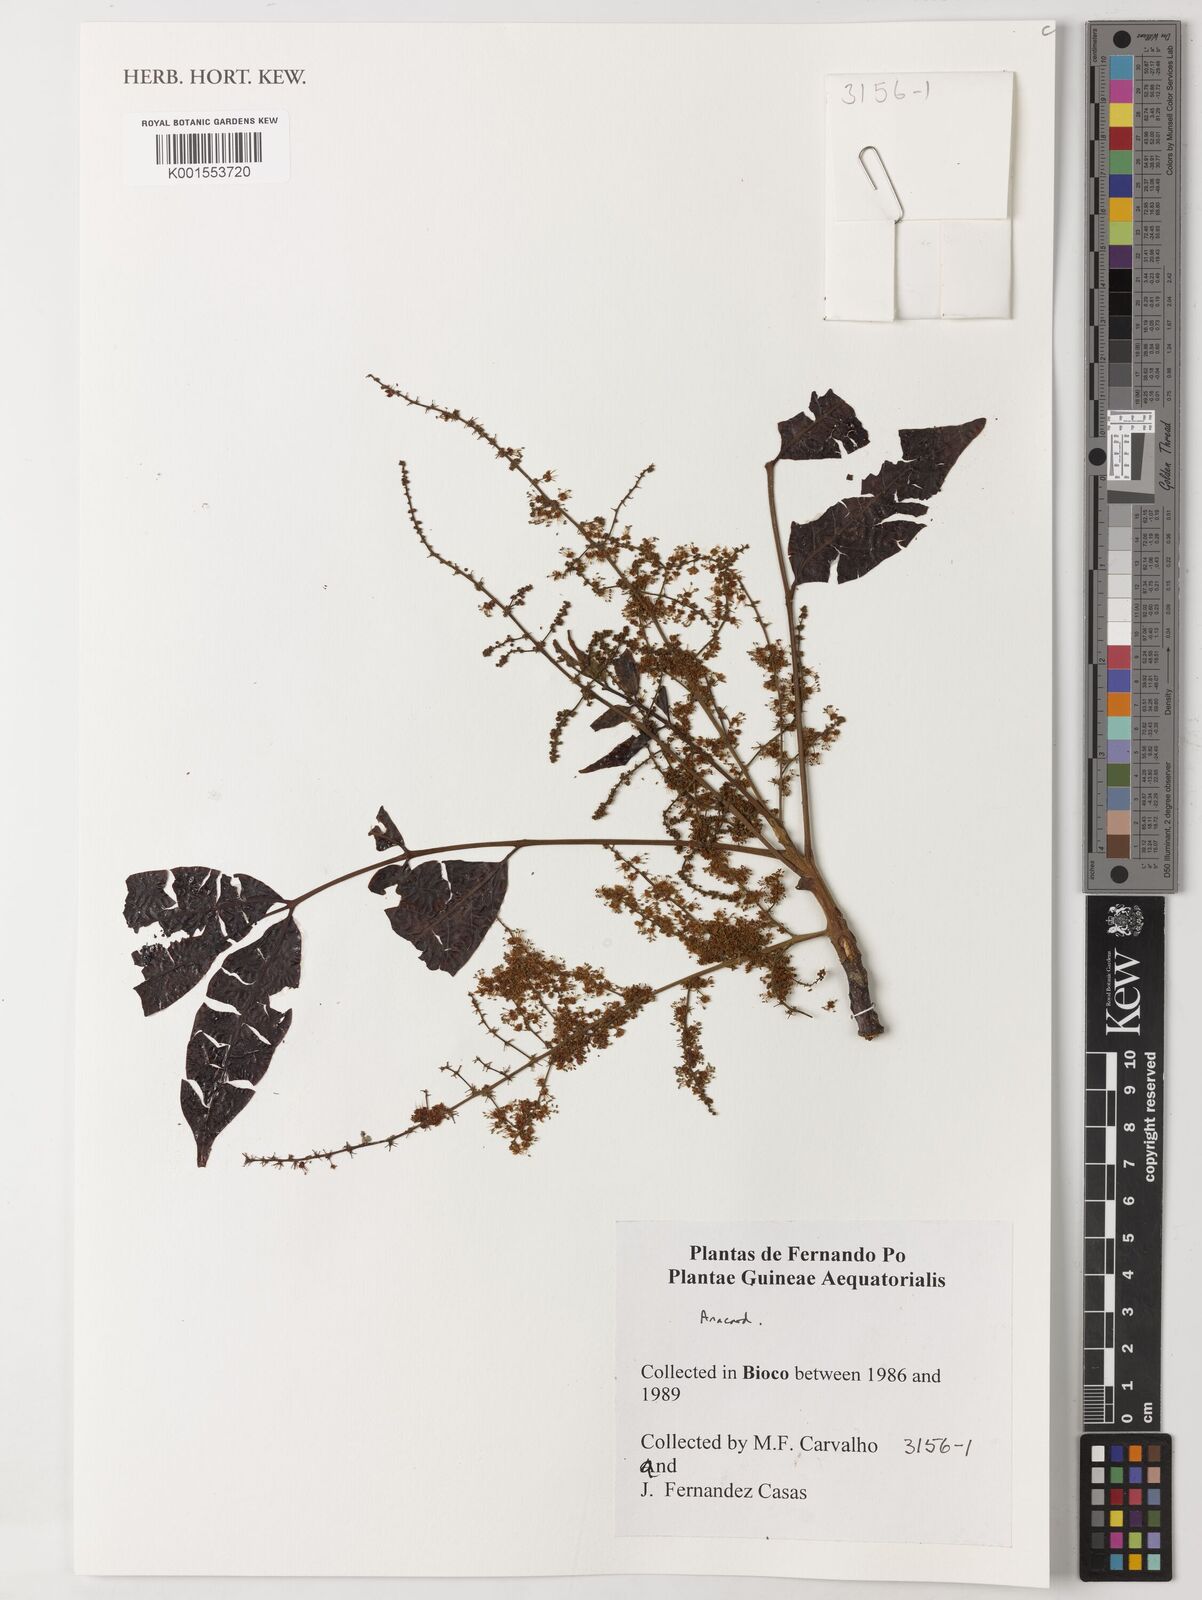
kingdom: Plantae
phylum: Tracheophyta
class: Magnoliopsida
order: Sapindales
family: Anacardiaceae
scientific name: Anacardiaceae
